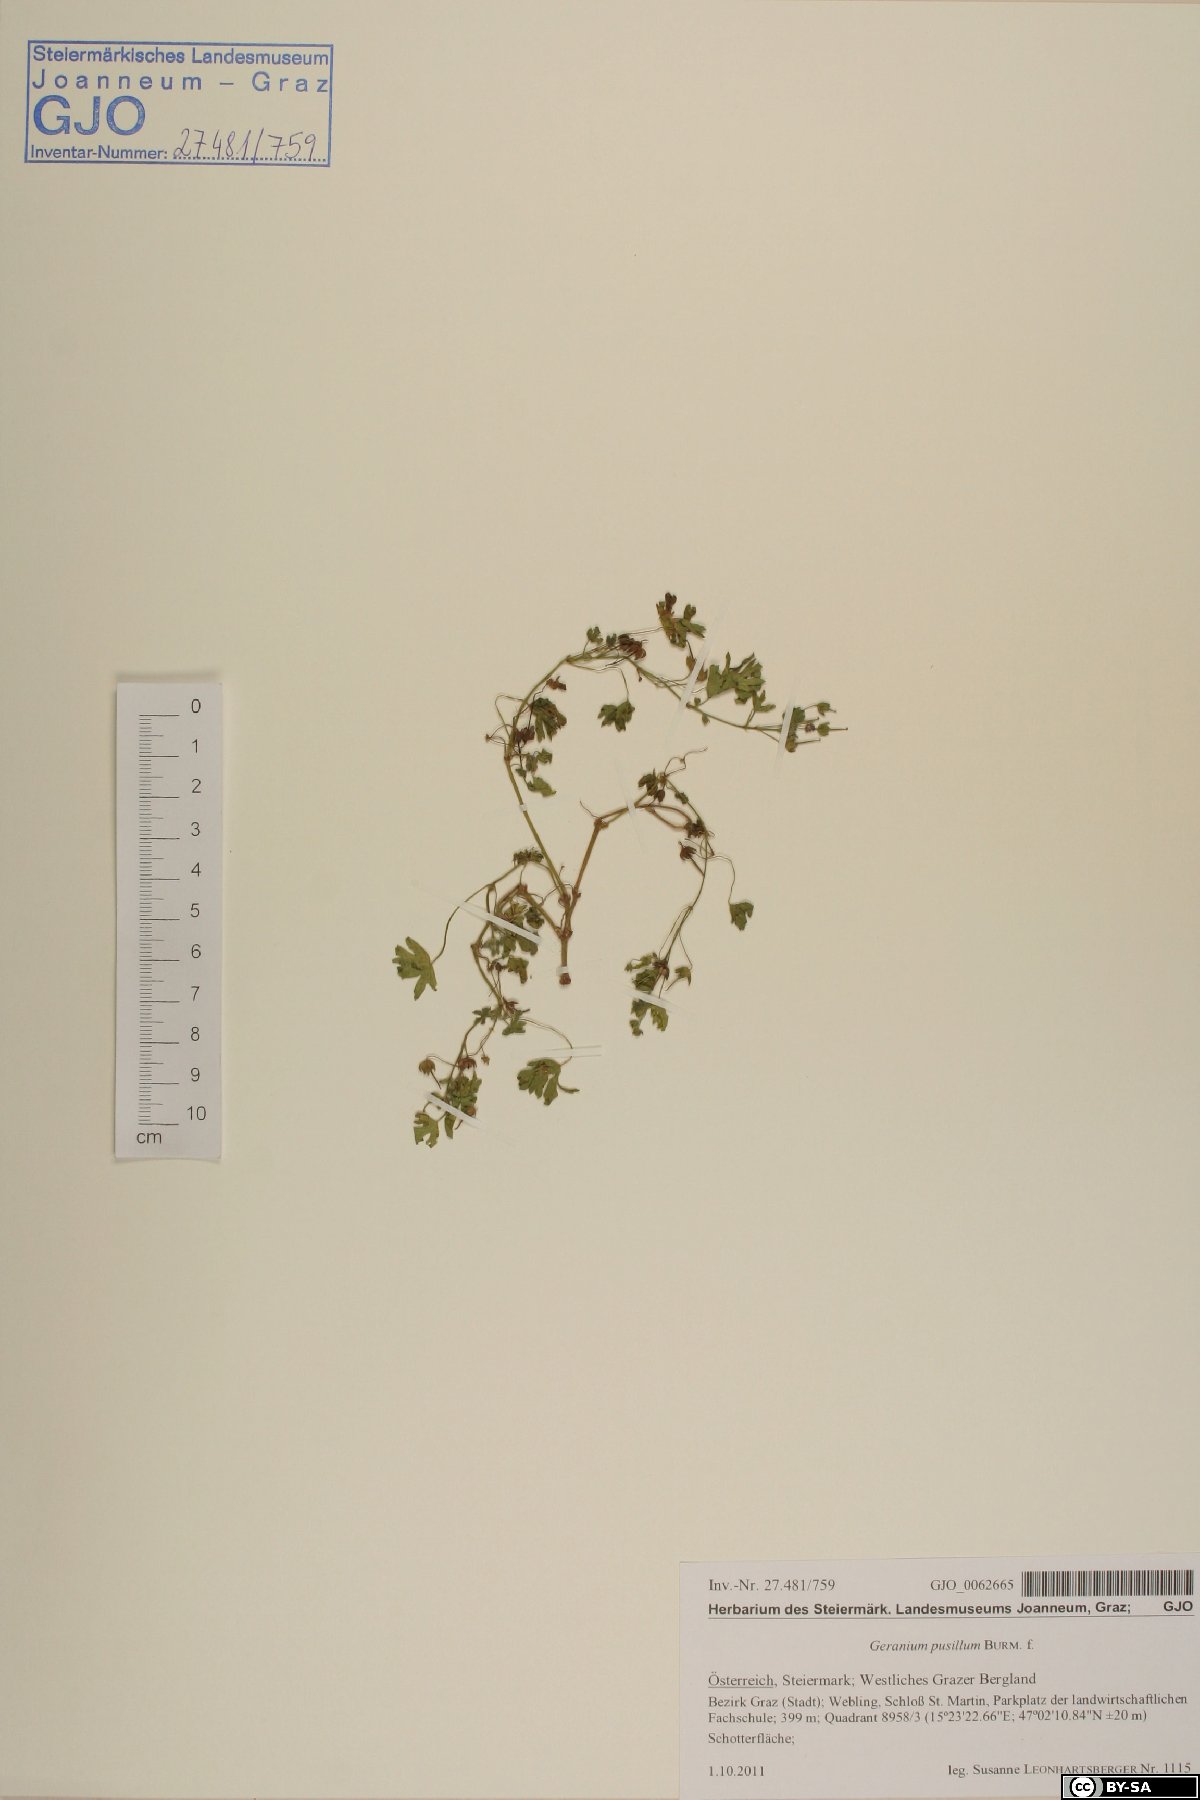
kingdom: Plantae
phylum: Tracheophyta
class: Magnoliopsida
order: Geraniales
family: Geraniaceae
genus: Geranium
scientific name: Geranium pusillum
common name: Small geranium
